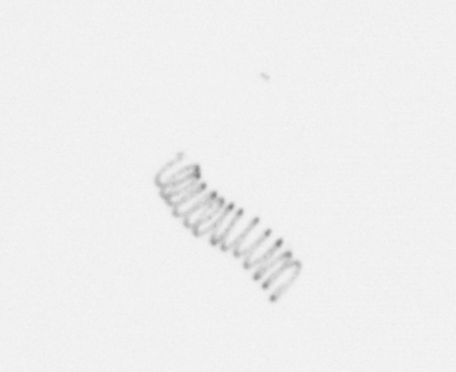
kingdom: Chromista
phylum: Ochrophyta
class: Bacillariophyceae
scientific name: Bacillariophyceae
